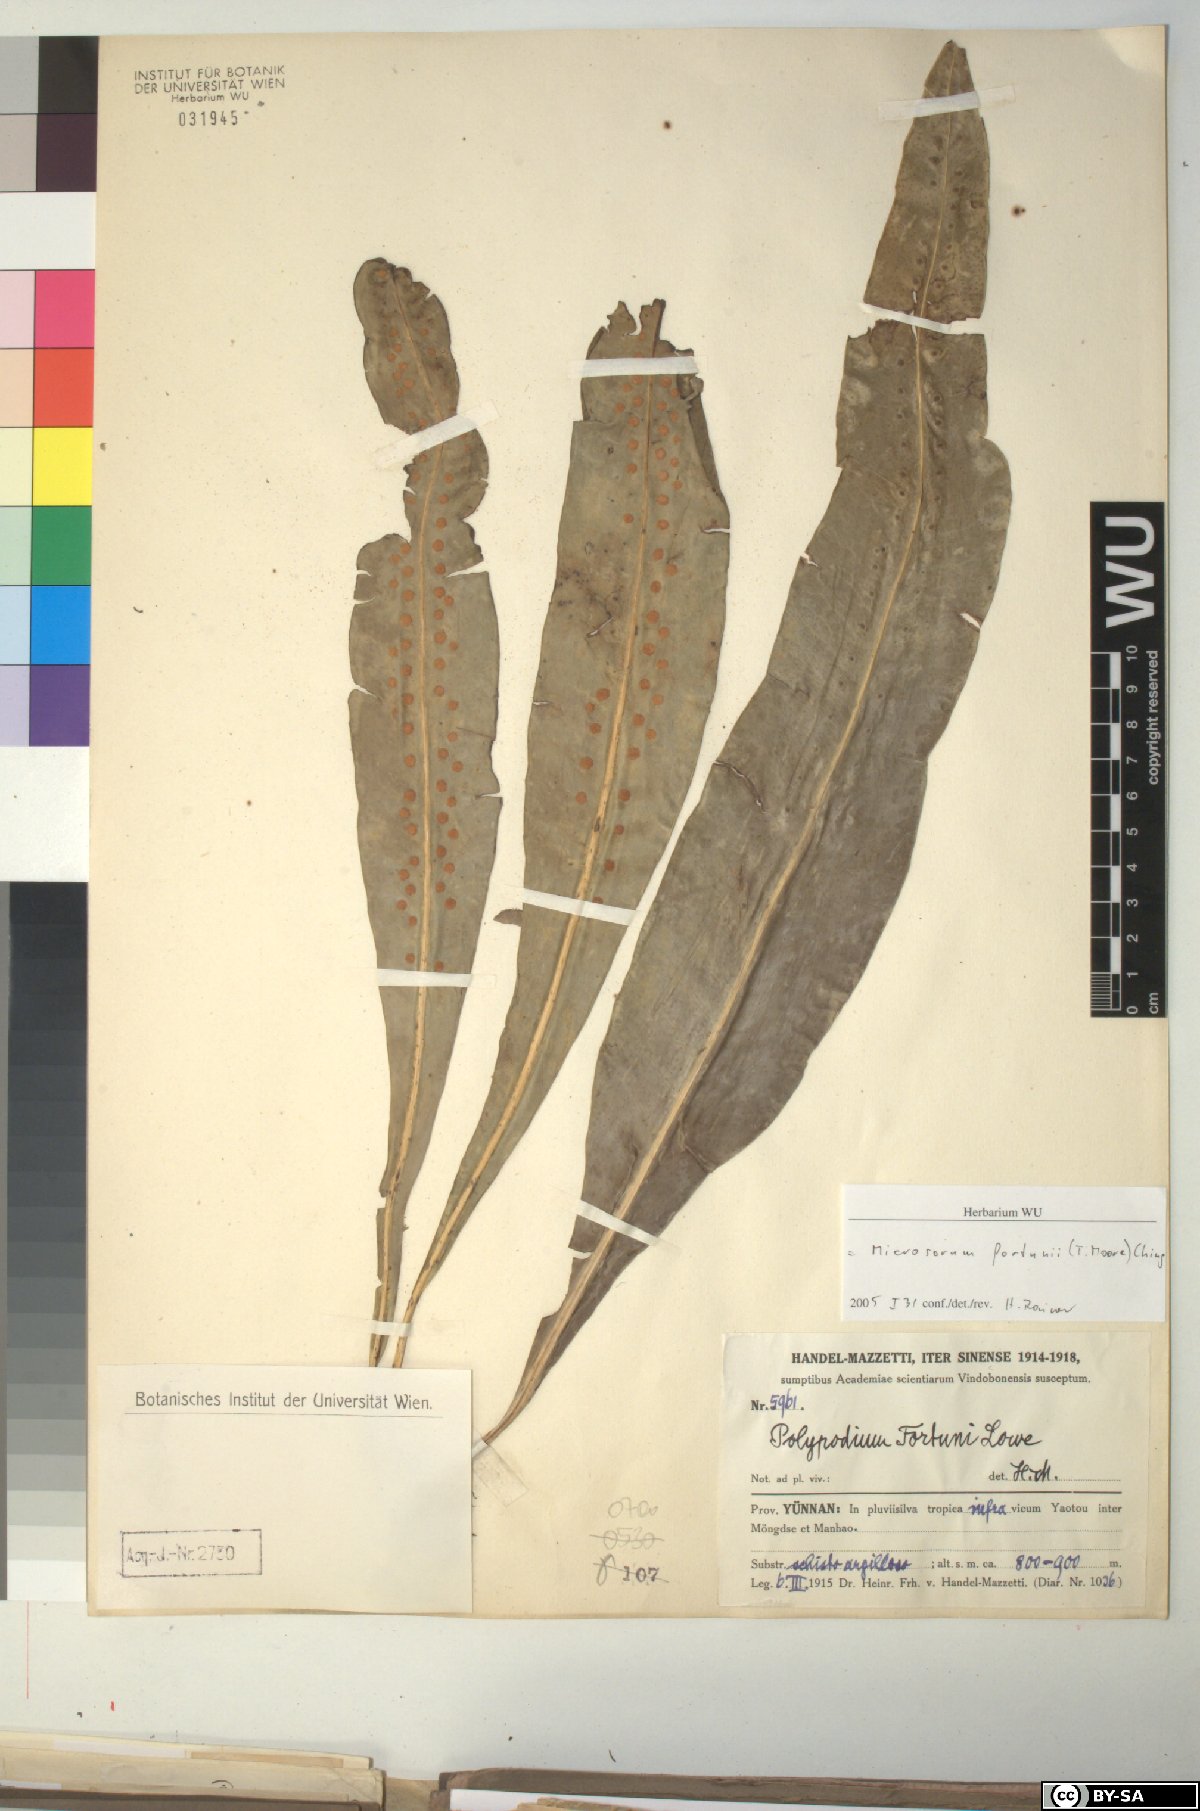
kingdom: Plantae
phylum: Tracheophyta
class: Polypodiopsida
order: Polypodiales
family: Polypodiaceae
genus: Lepisorus
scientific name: Lepisorus fortuni
